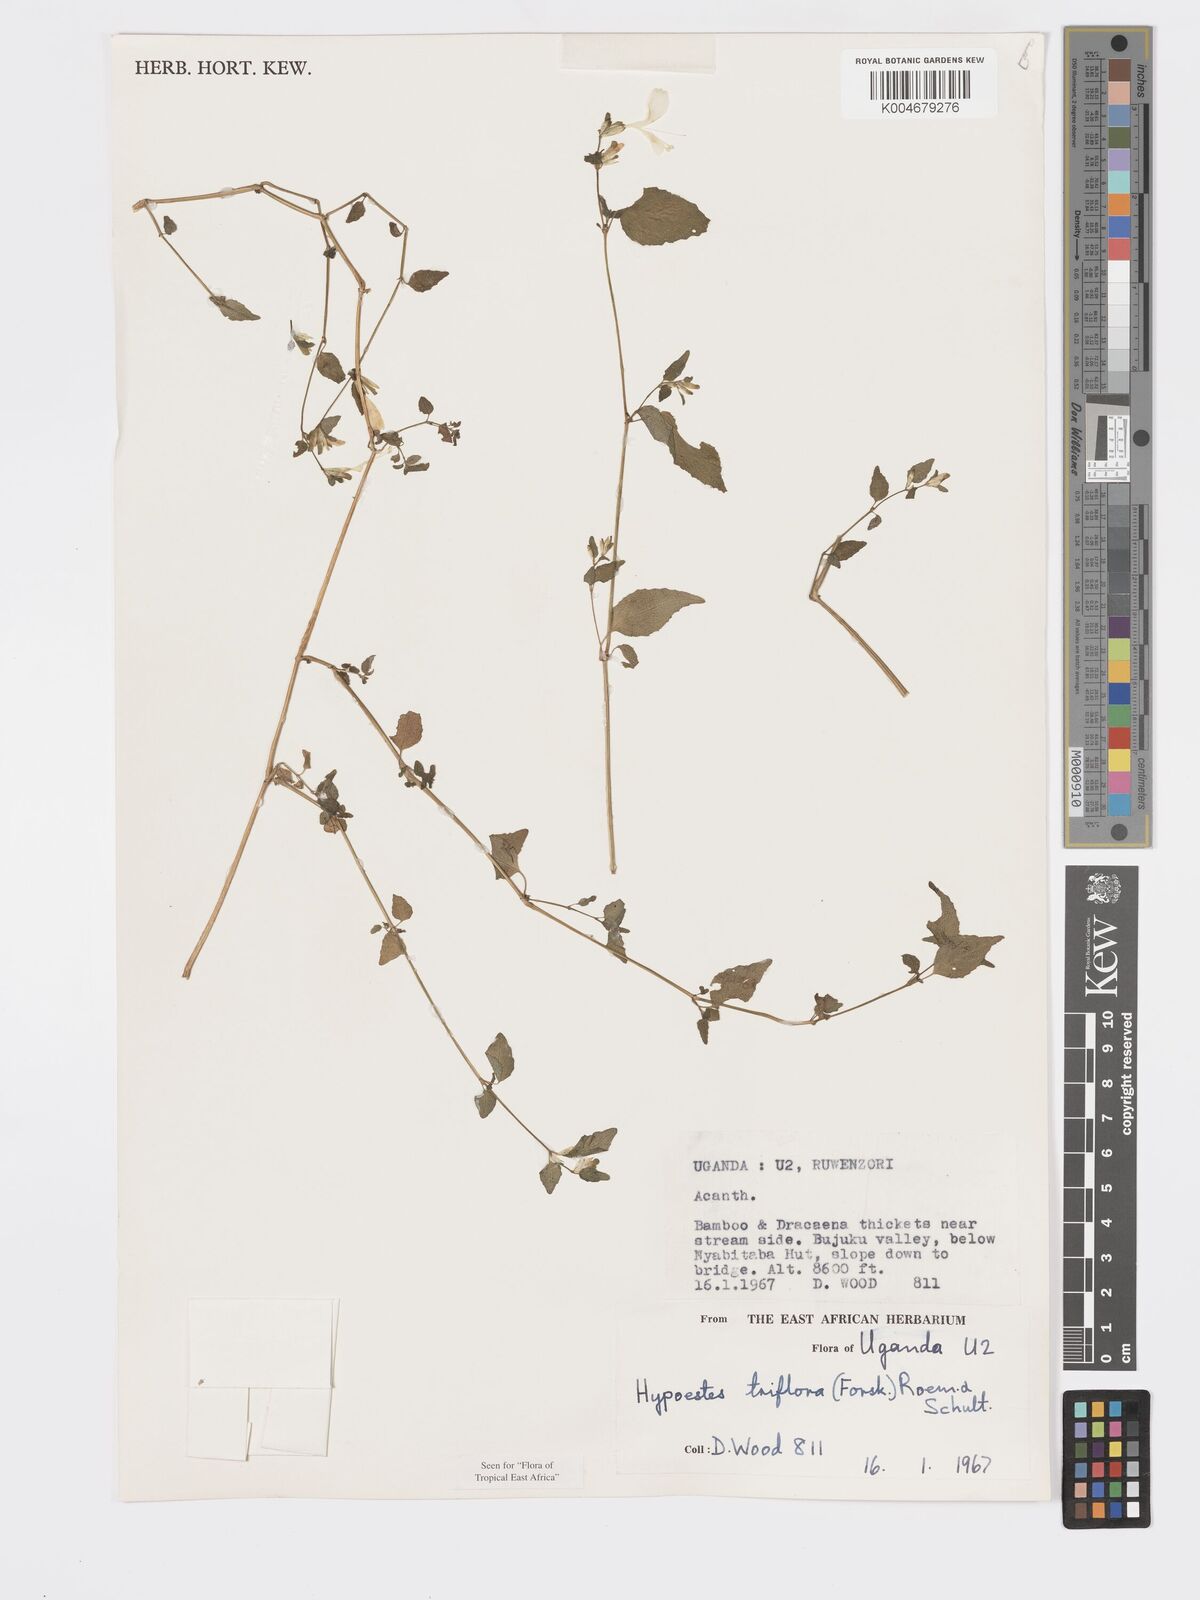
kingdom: Plantae
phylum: Tracheophyta
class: Magnoliopsida
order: Lamiales
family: Acanthaceae
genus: Hypoestes
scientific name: Hypoestes triflora
